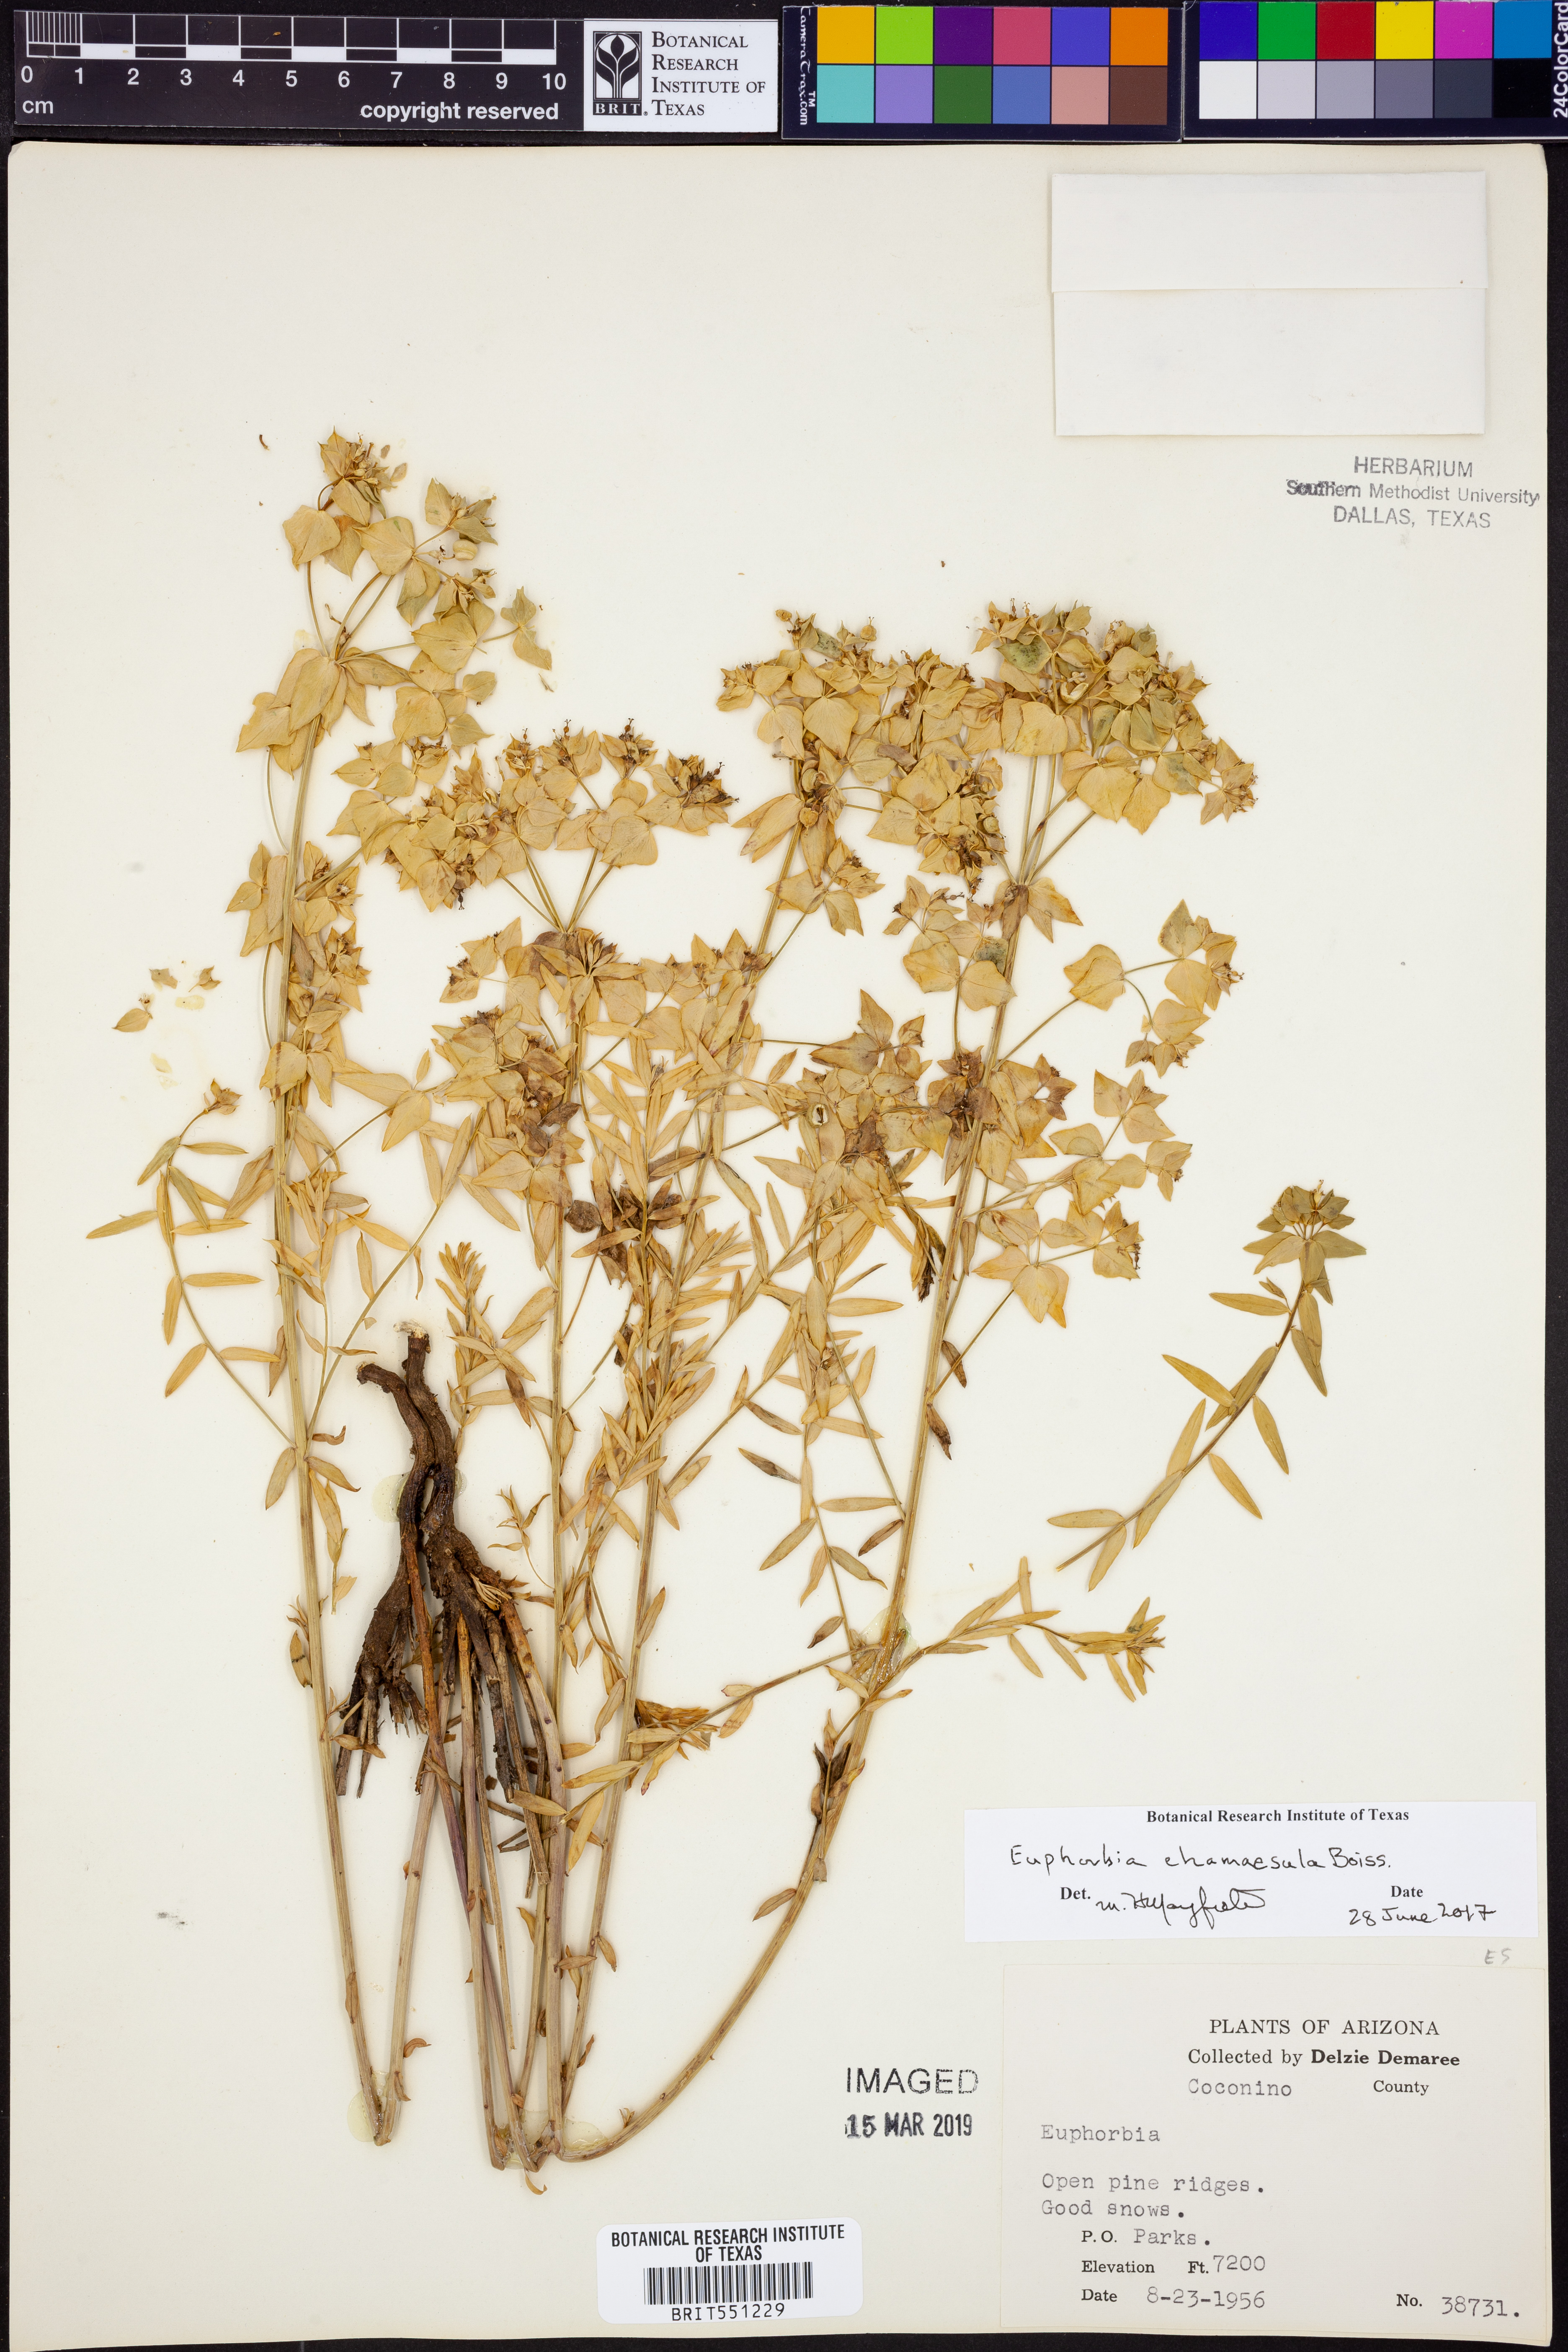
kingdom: Plantae
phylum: Tracheophyta
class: Magnoliopsida
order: Malpighiales
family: Euphorbiaceae
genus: Euphorbia
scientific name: Euphorbia chamaesula
